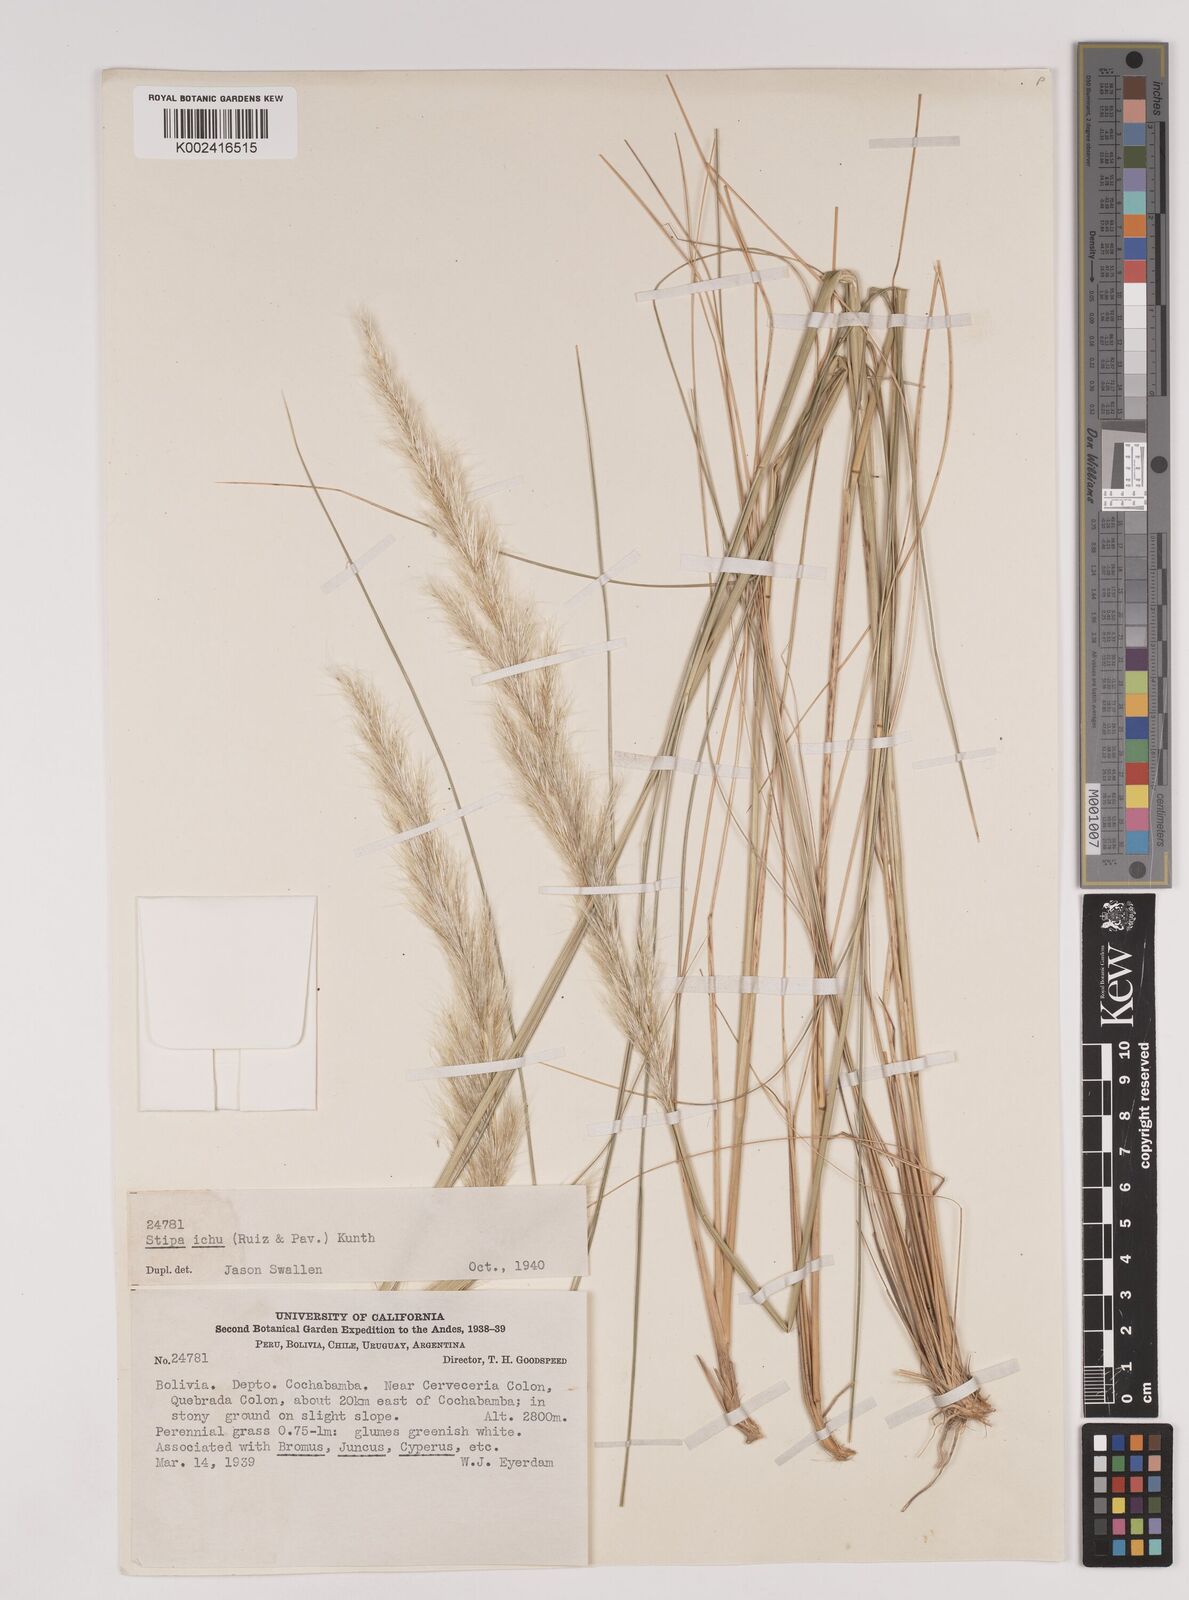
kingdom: Plantae
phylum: Tracheophyta
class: Liliopsida
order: Poales
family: Poaceae
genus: Jarava
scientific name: Jarava ichu
